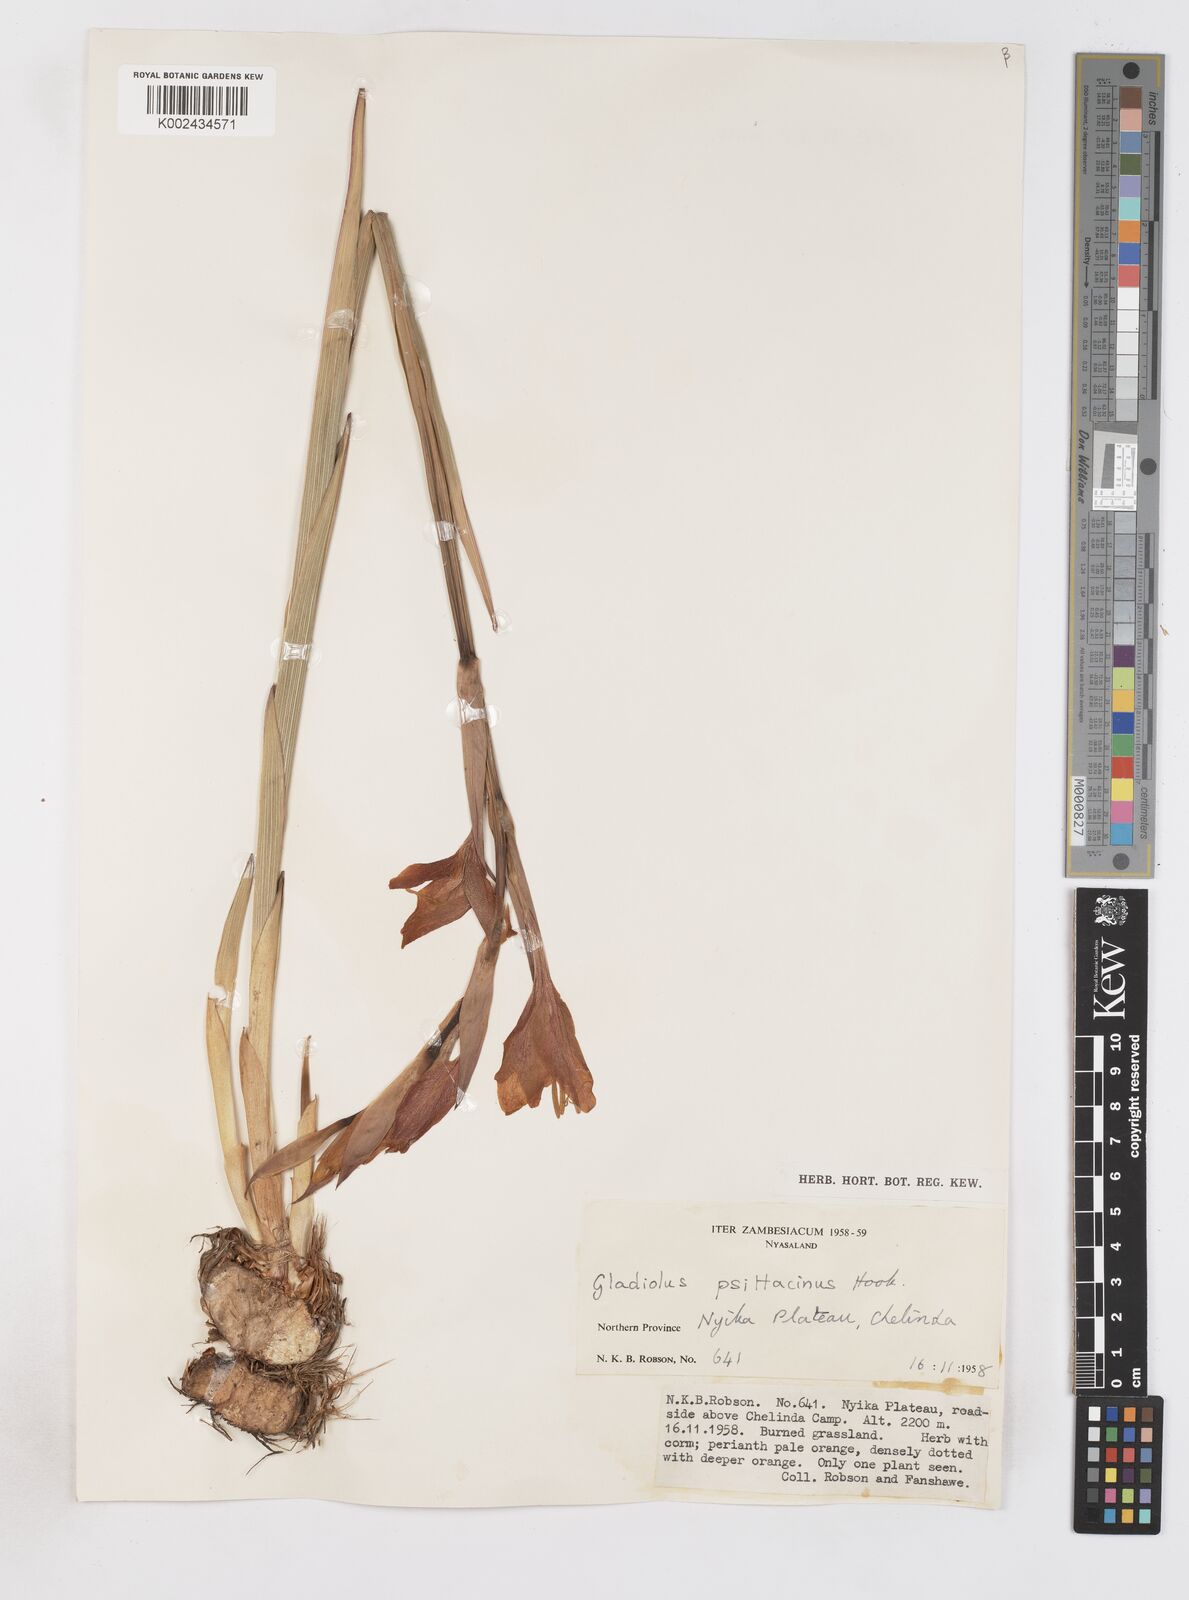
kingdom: Plantae
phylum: Tracheophyta
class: Liliopsida
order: Asparagales
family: Iridaceae
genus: Gladiolus
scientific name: Gladiolus dalenii
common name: Cornflag
